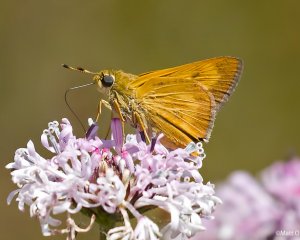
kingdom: Animalia
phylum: Arthropoda
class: Insecta
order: Lepidoptera
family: Hesperiidae
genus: Problema
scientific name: Problema byssus
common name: Byssus Skipper
